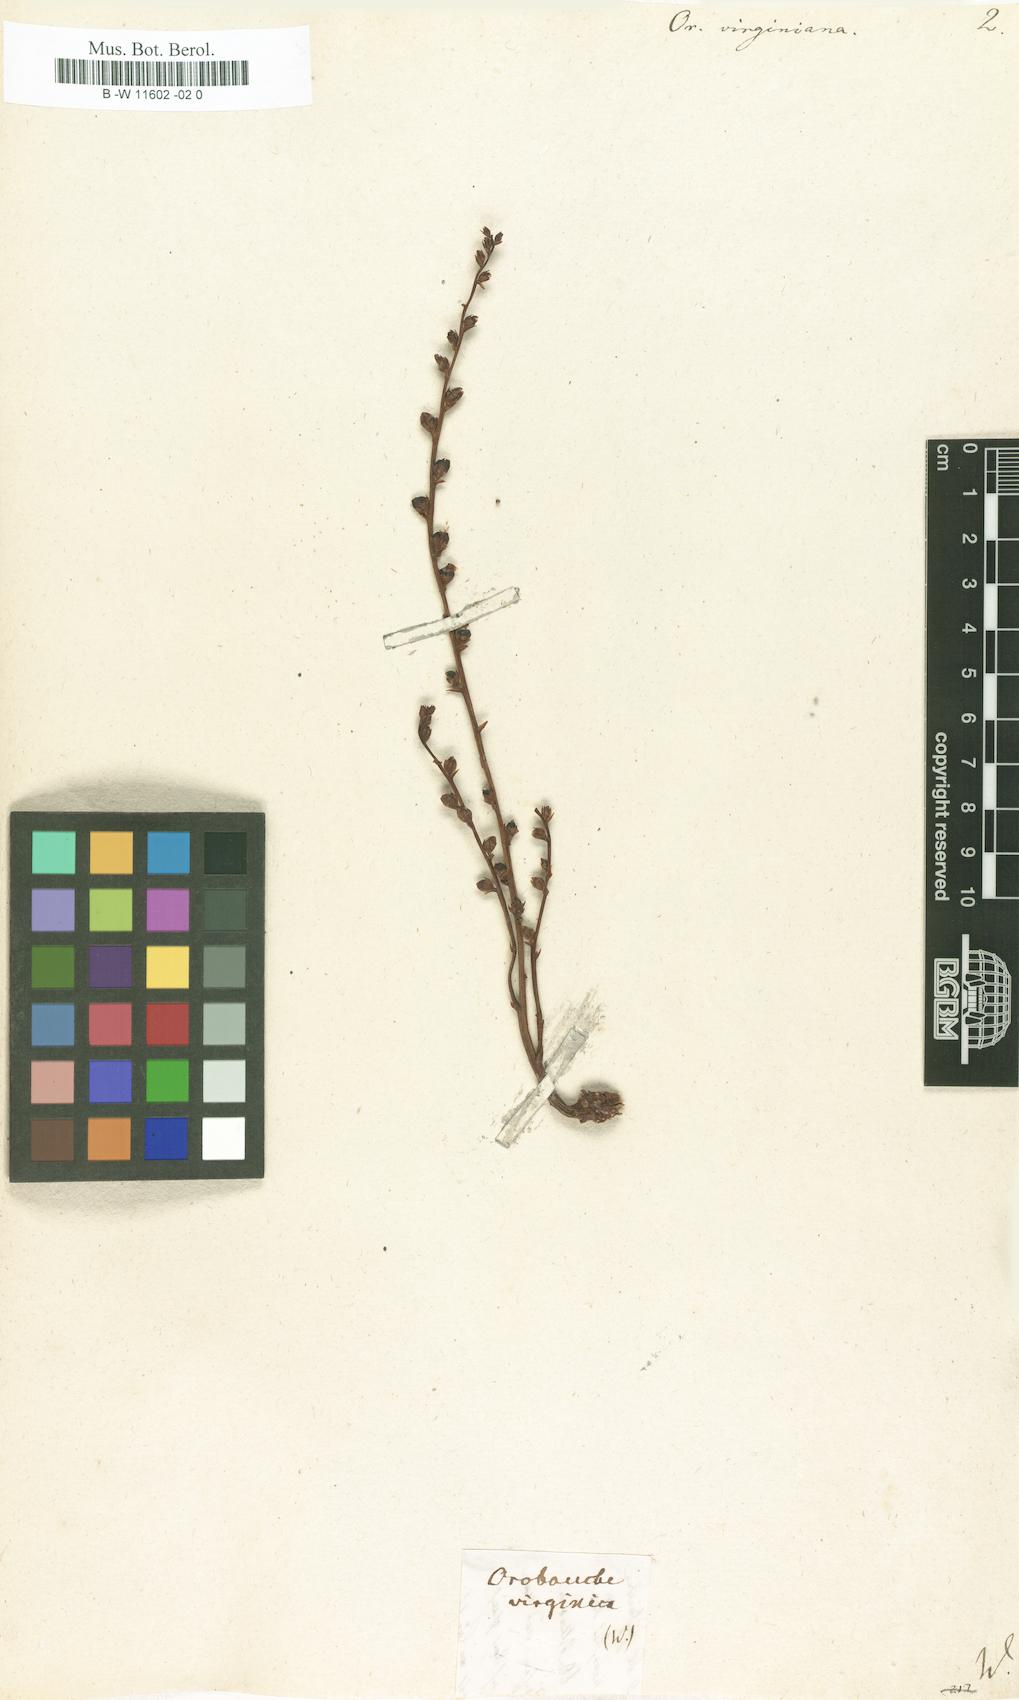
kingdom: Plantae
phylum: Tracheophyta
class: Magnoliopsida
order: Lamiales
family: Orobanchaceae
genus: Epifagus
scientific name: Epifagus virginiana
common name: Beechdrops
